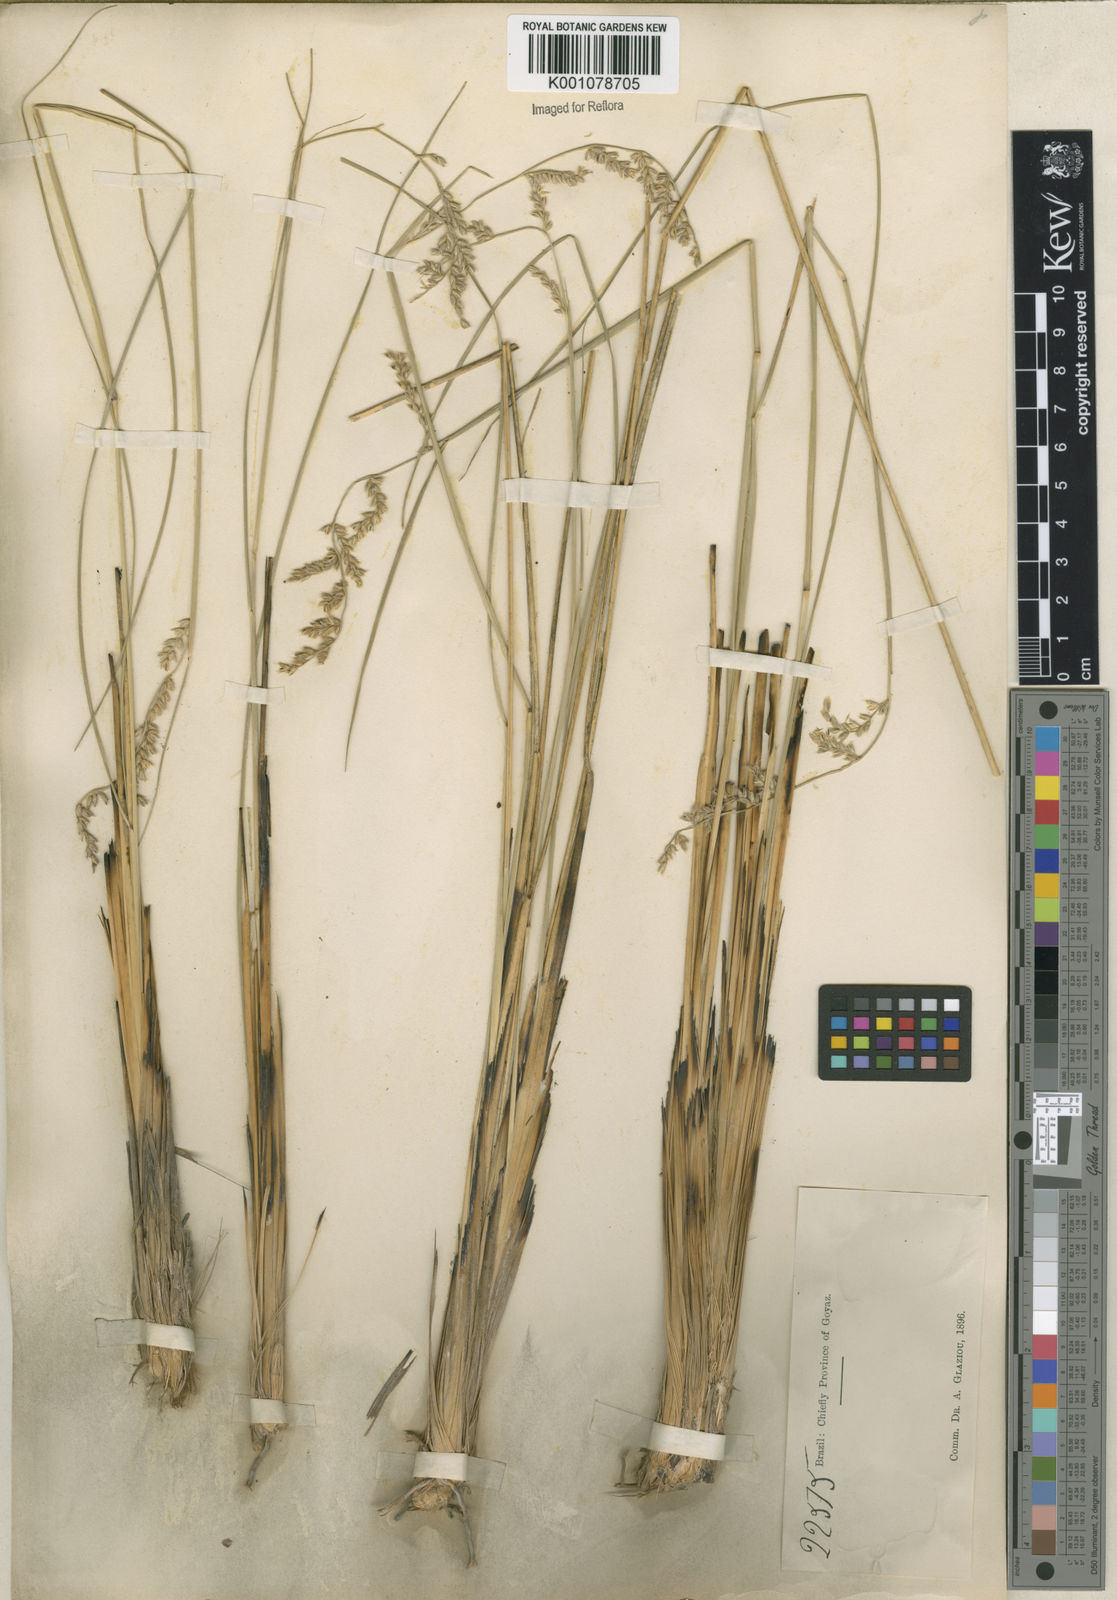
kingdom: Plantae
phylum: Tracheophyta
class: Liliopsida
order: Poales
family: Poaceae
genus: Anthaenantiopsis
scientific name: Anthaenantiopsis trachystachya
